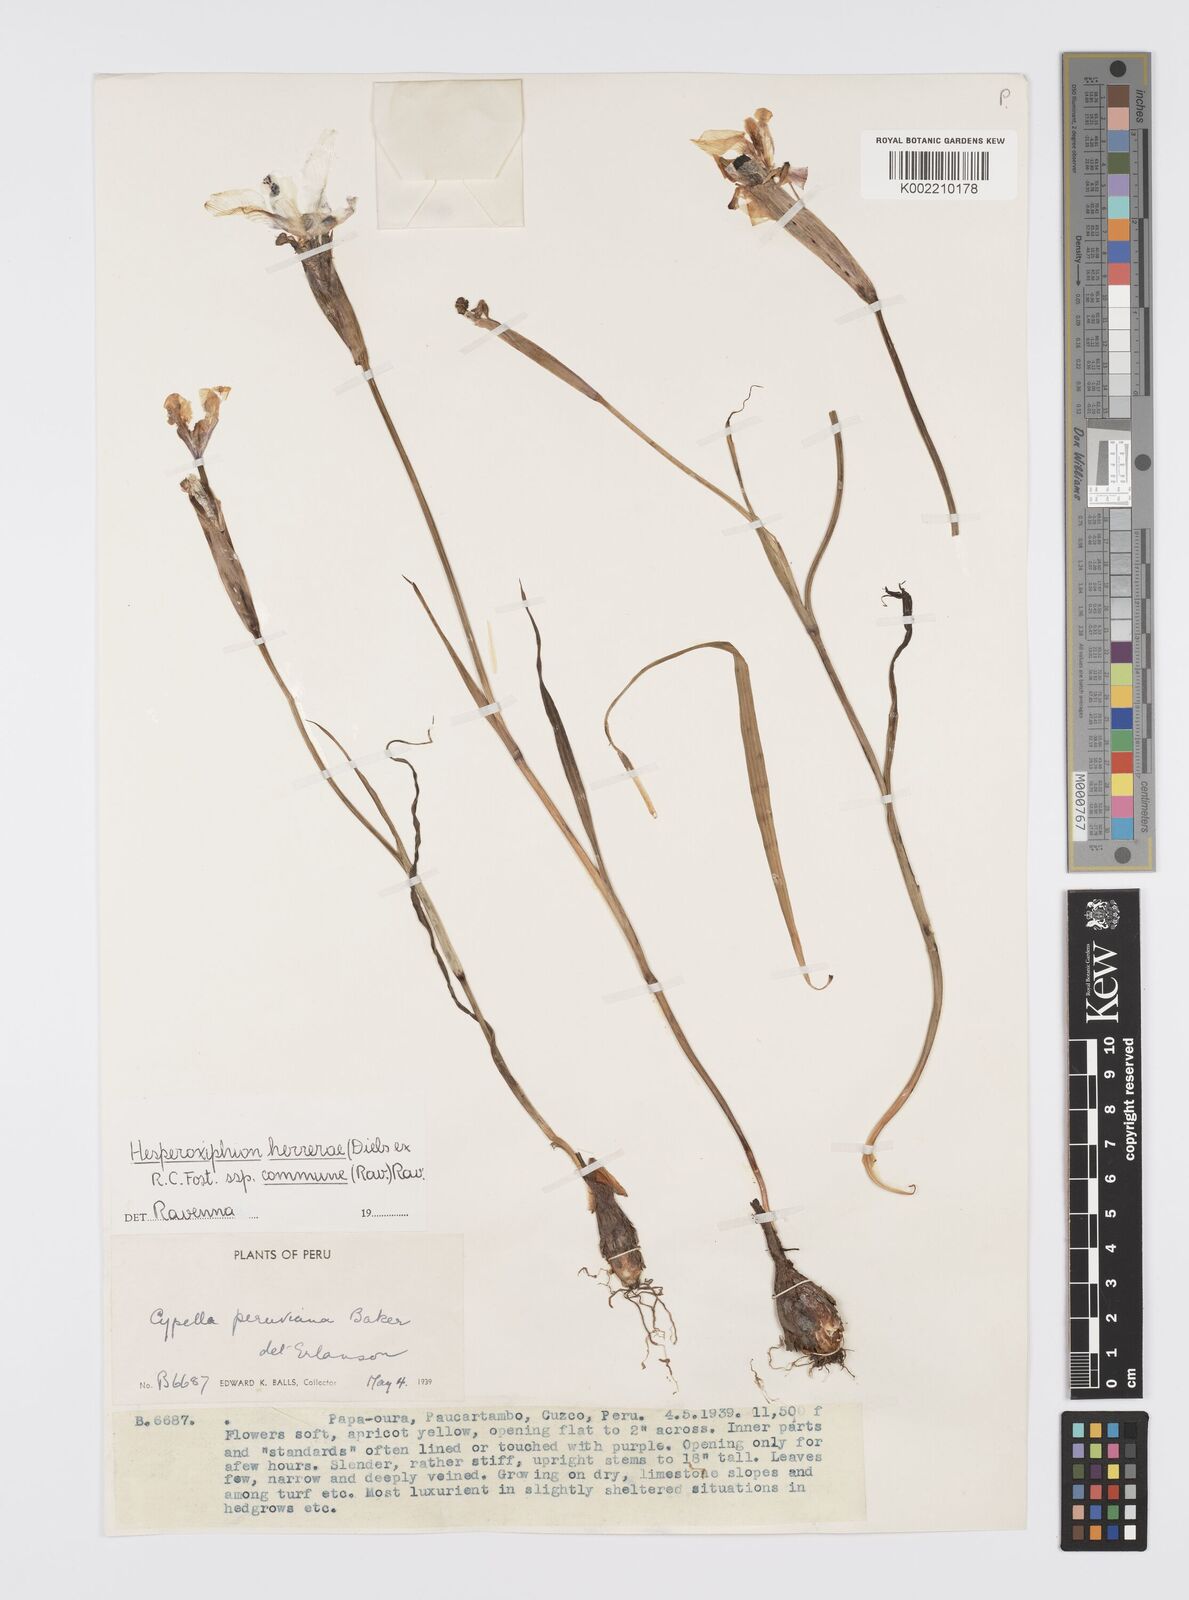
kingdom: Plantae
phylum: Tracheophyta
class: Liliopsida
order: Asparagales
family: Iridaceae
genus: Hesperoxiphion
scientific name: Hesperoxiphion herrerae
